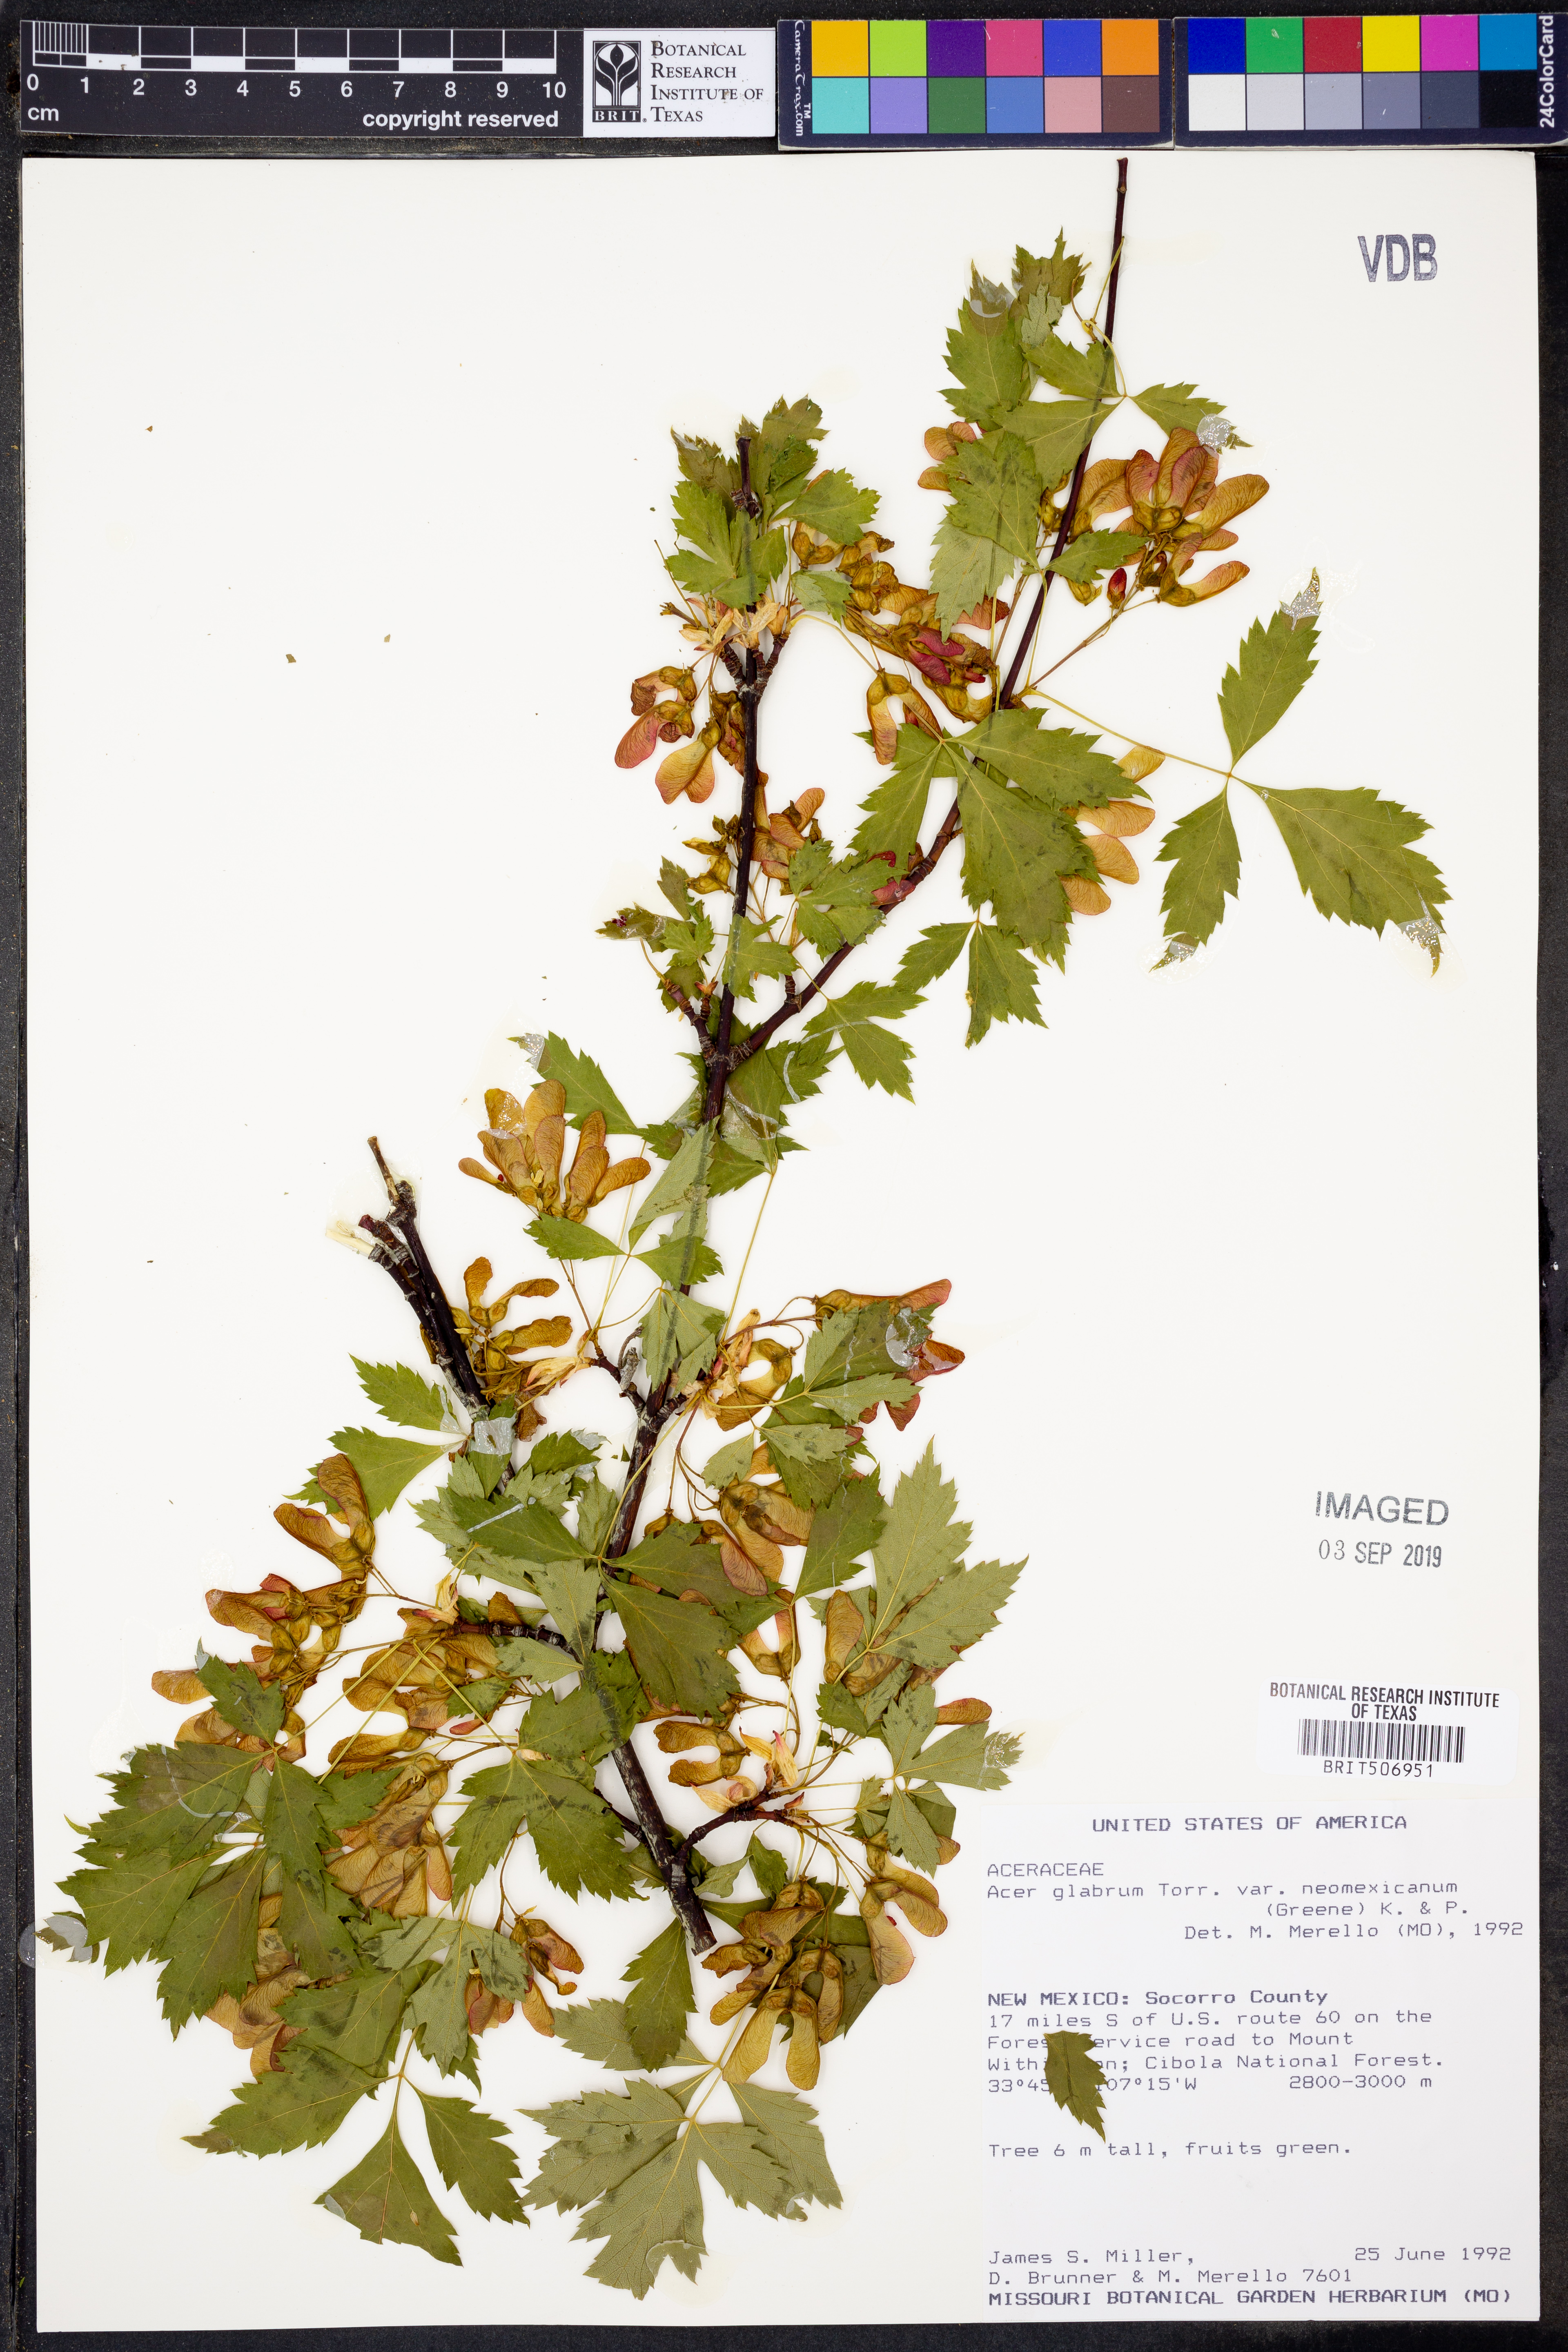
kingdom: Plantae
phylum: Tracheophyta
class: Magnoliopsida
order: Sapindales
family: Sapindaceae
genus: Acer
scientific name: Acer glabrum
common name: Rocky mountain maple
